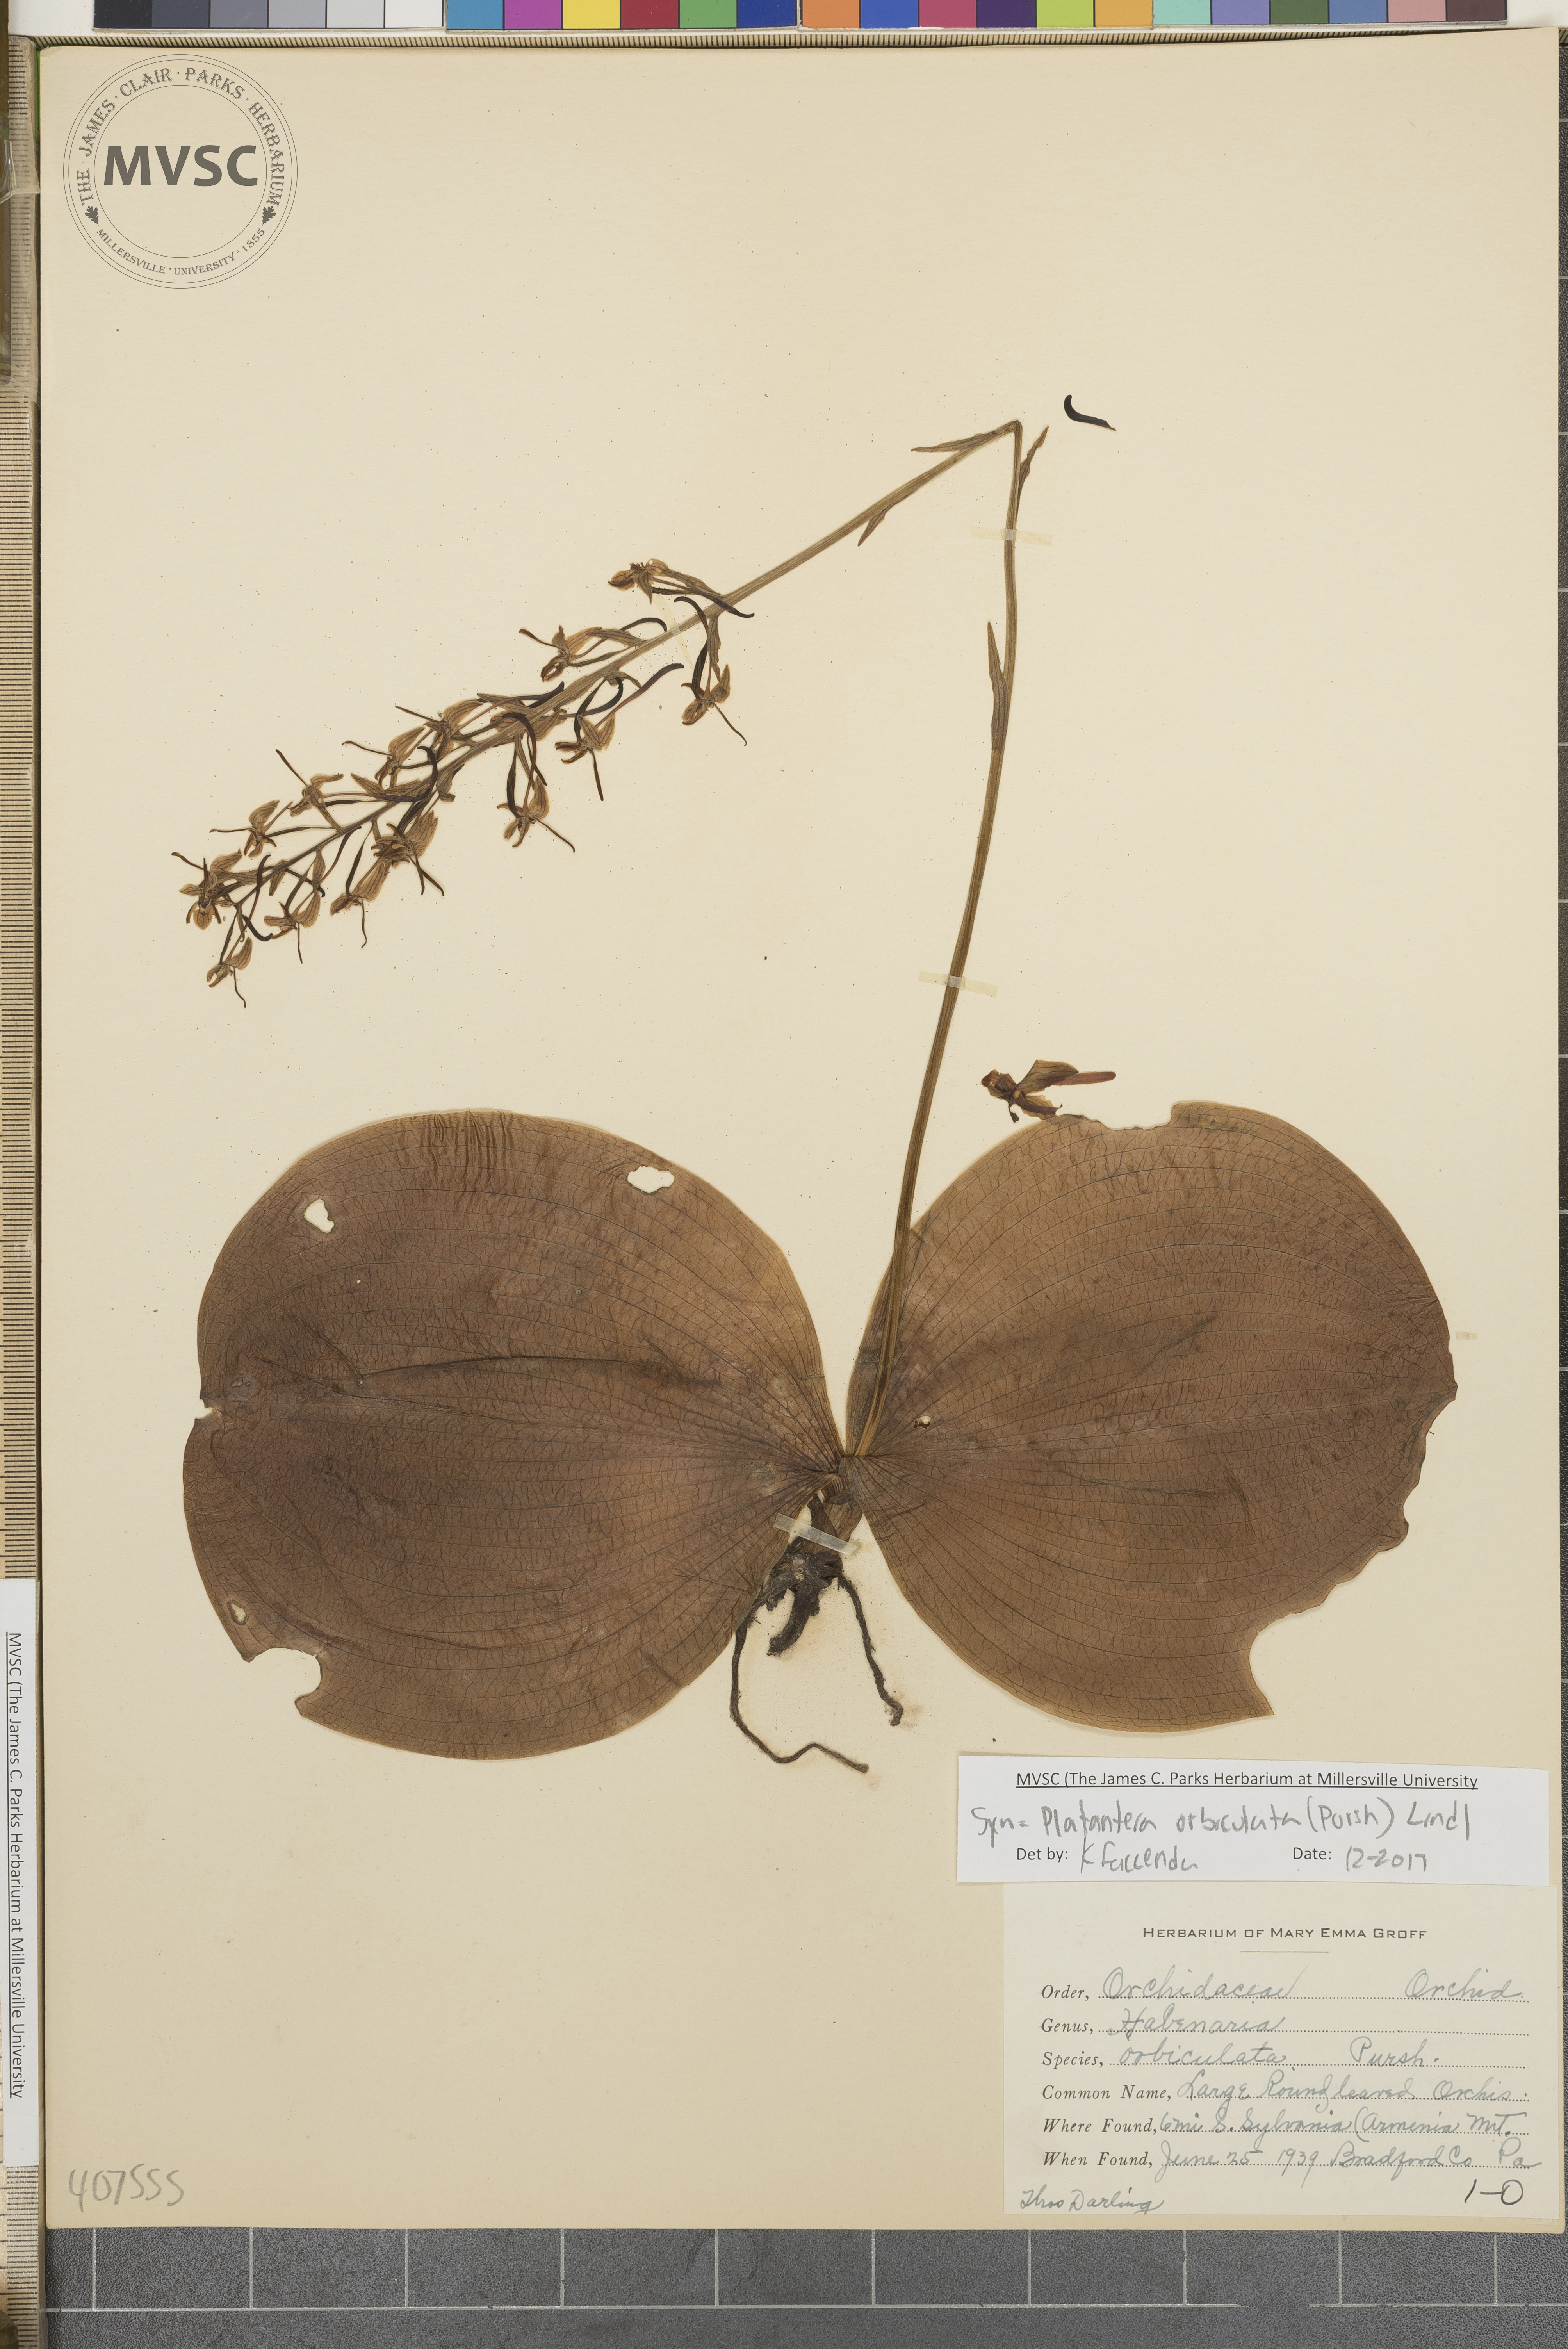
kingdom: Plantae
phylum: Tracheophyta
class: Liliopsida
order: Asparagales
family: Orchidaceae
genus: Platanthera
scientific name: Platanthera orbiculata
